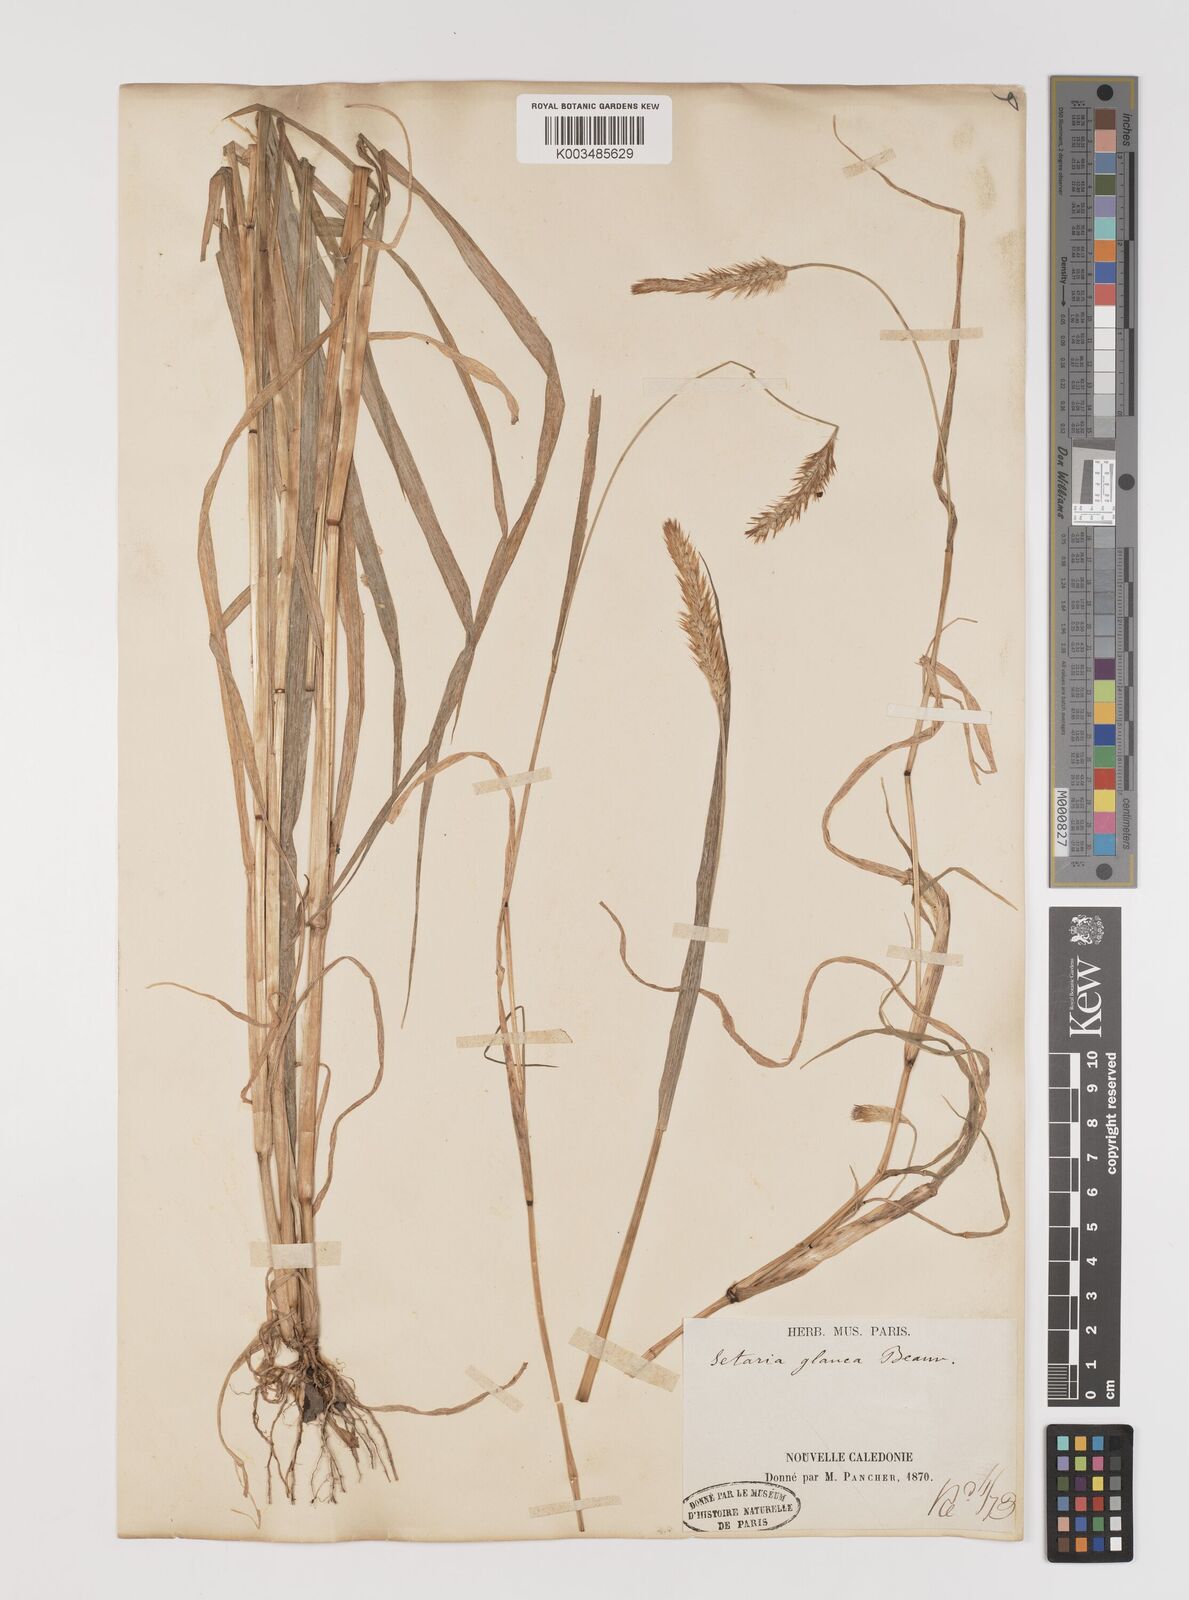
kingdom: Plantae
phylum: Tracheophyta
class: Liliopsida
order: Poales
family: Poaceae
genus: Setaria
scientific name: Setaria pumila
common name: Yellow bristle-grass
